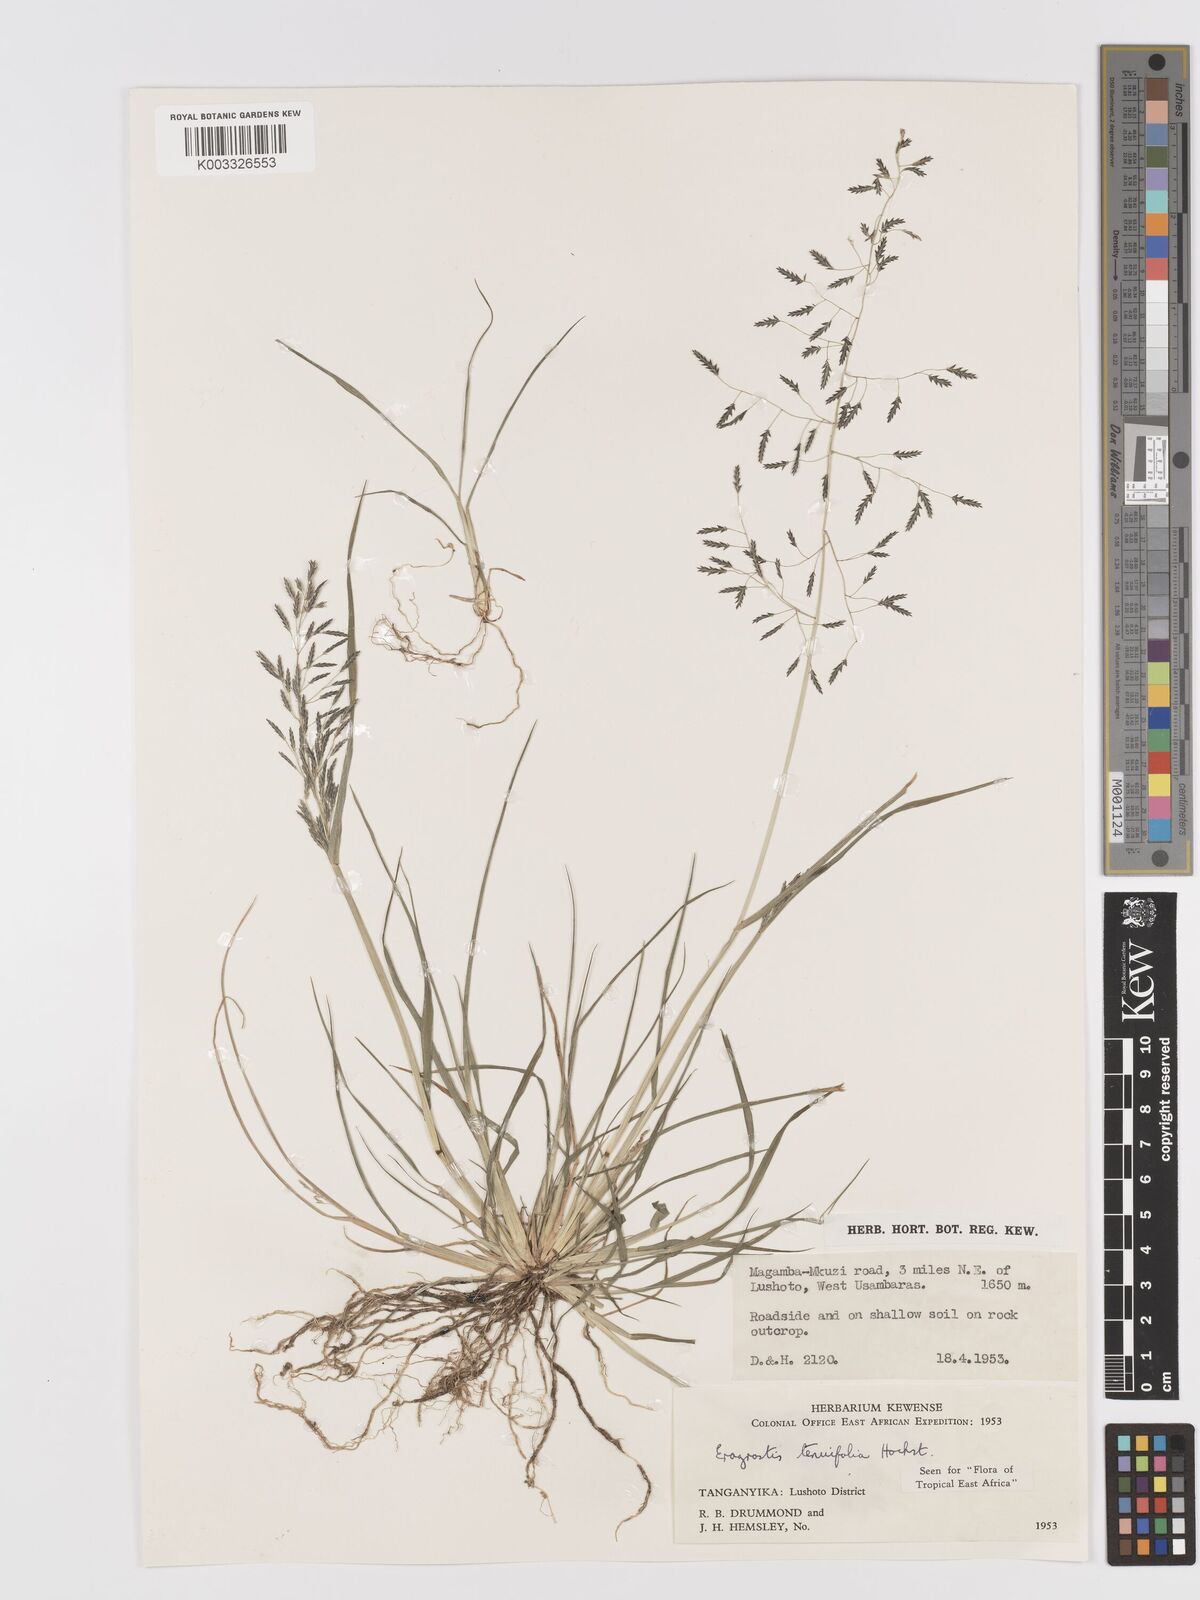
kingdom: Plantae
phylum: Tracheophyta
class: Liliopsida
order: Poales
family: Poaceae
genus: Eragrostis
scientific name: Eragrostis tenuifolia
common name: Elastic grass
